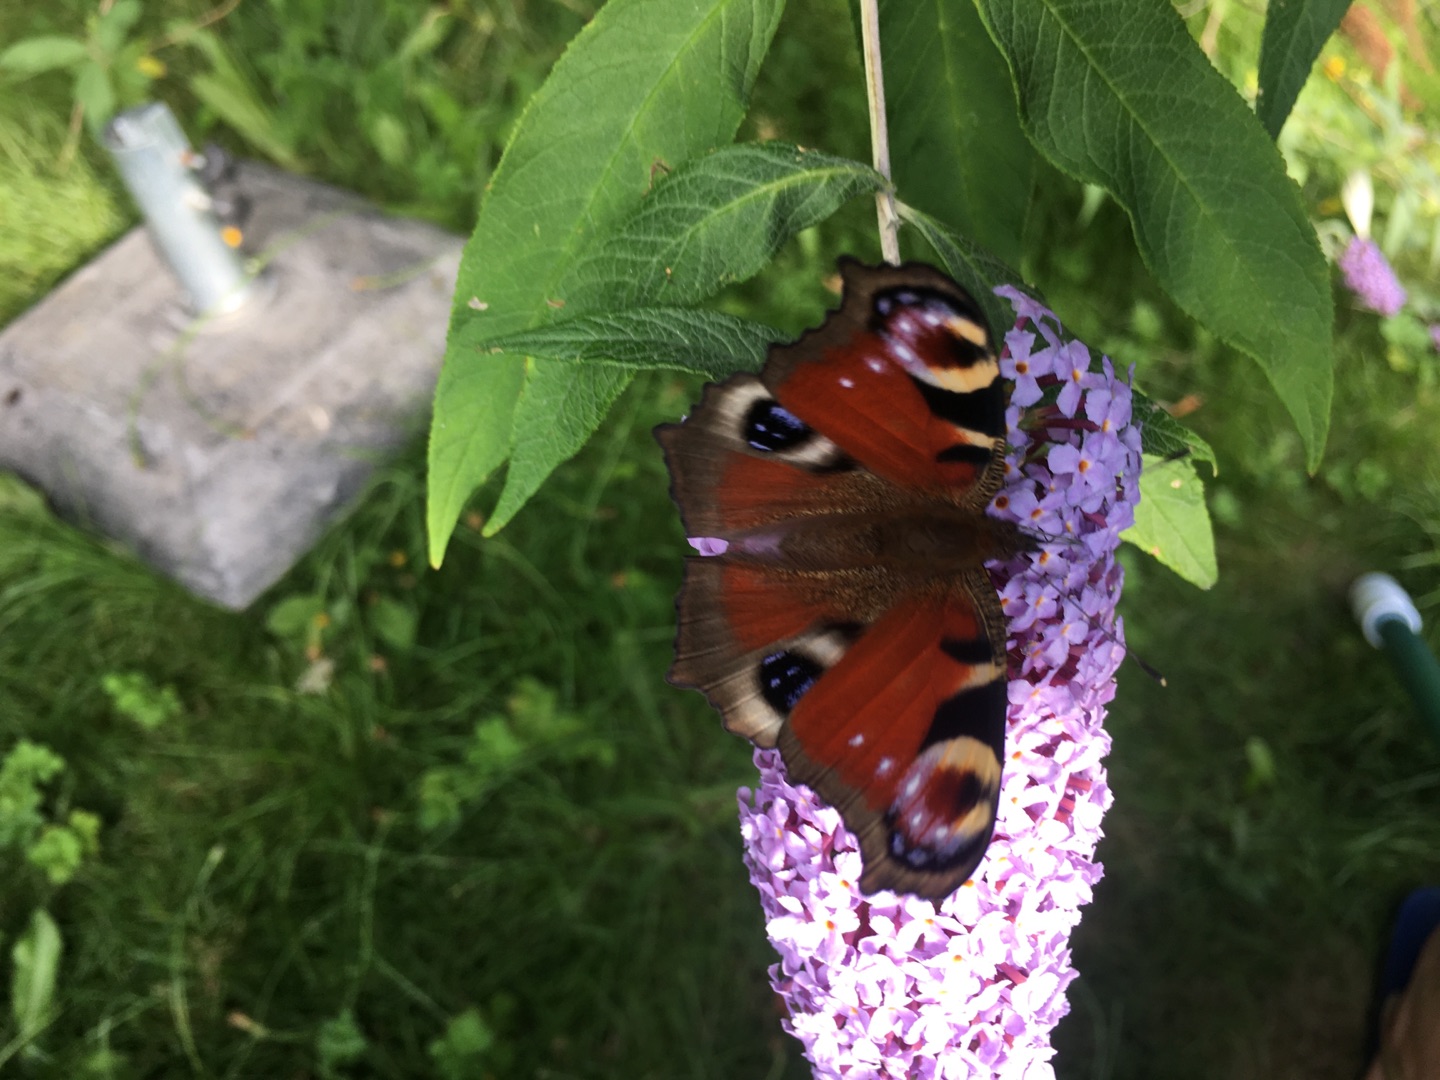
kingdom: Animalia
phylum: Arthropoda
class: Insecta
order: Lepidoptera
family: Nymphalidae
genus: Aglais
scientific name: Aglais io
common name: Dagpåfugleøje
